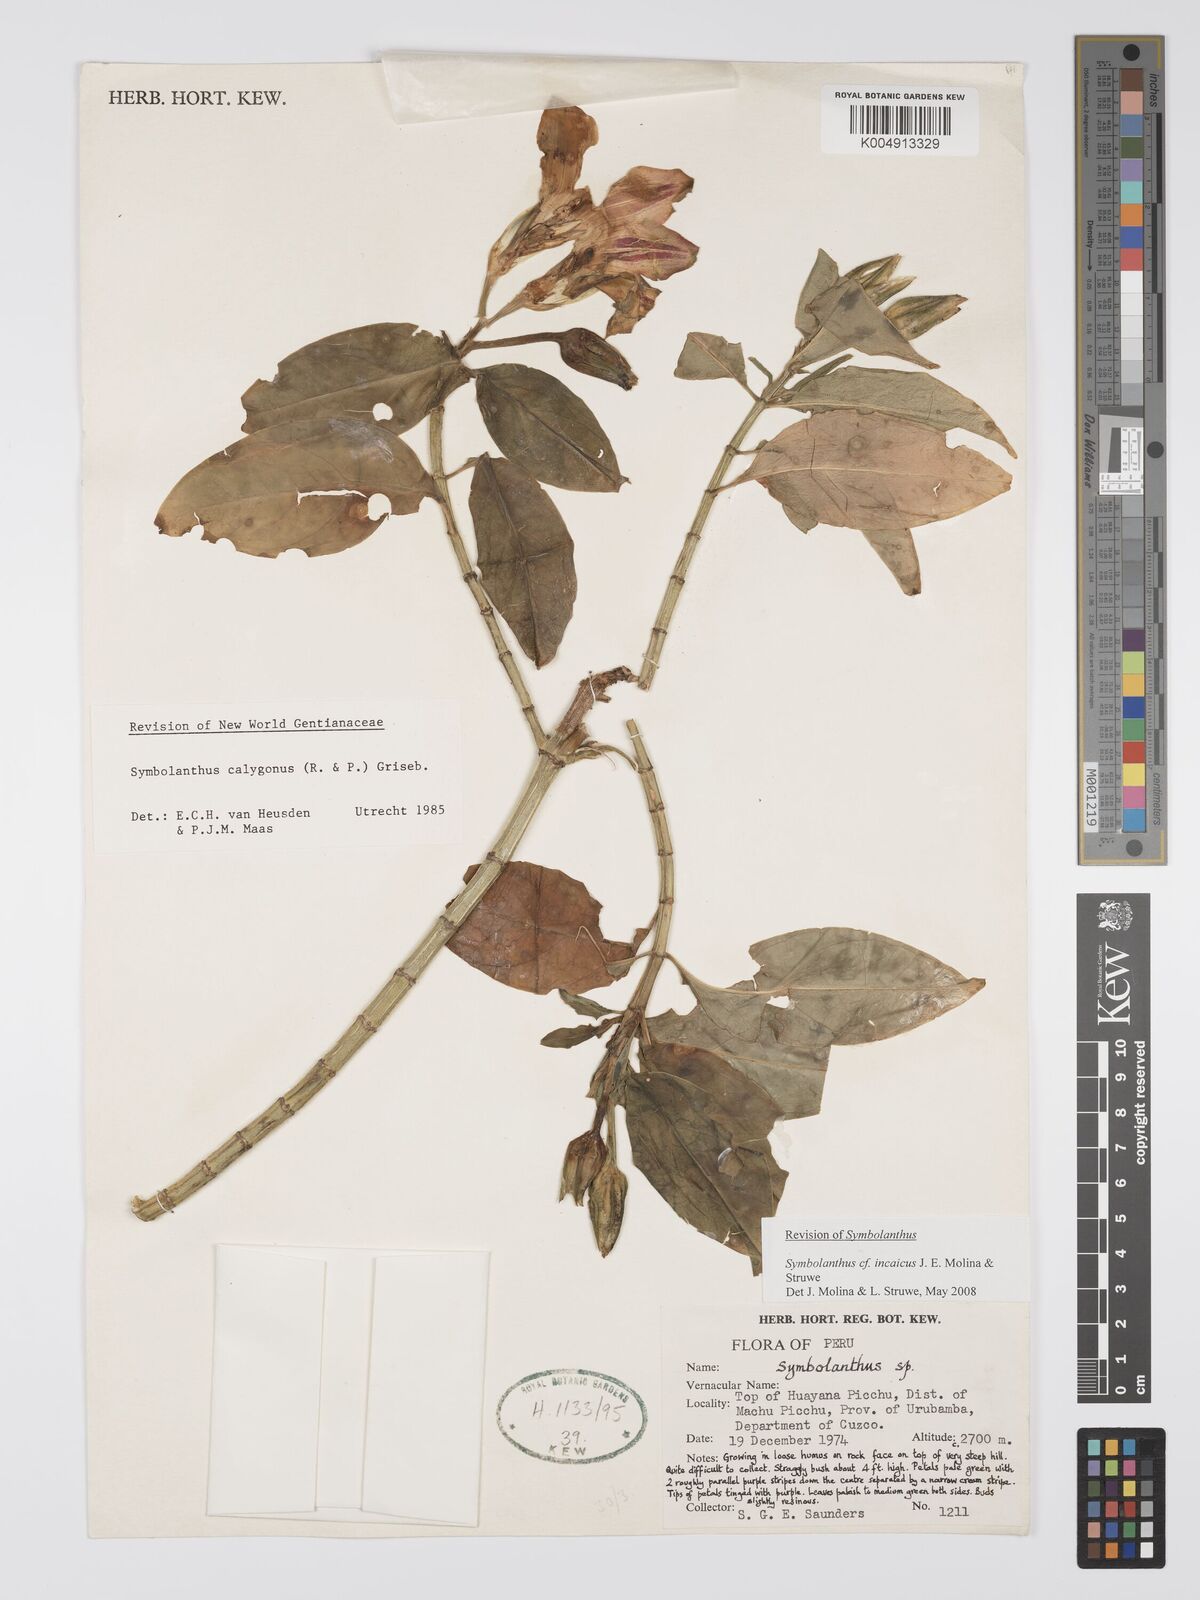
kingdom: Plantae
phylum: Tracheophyta
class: Magnoliopsida
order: Gentianales
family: Gentianaceae
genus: Symbolanthus
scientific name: Symbolanthus incaicus
